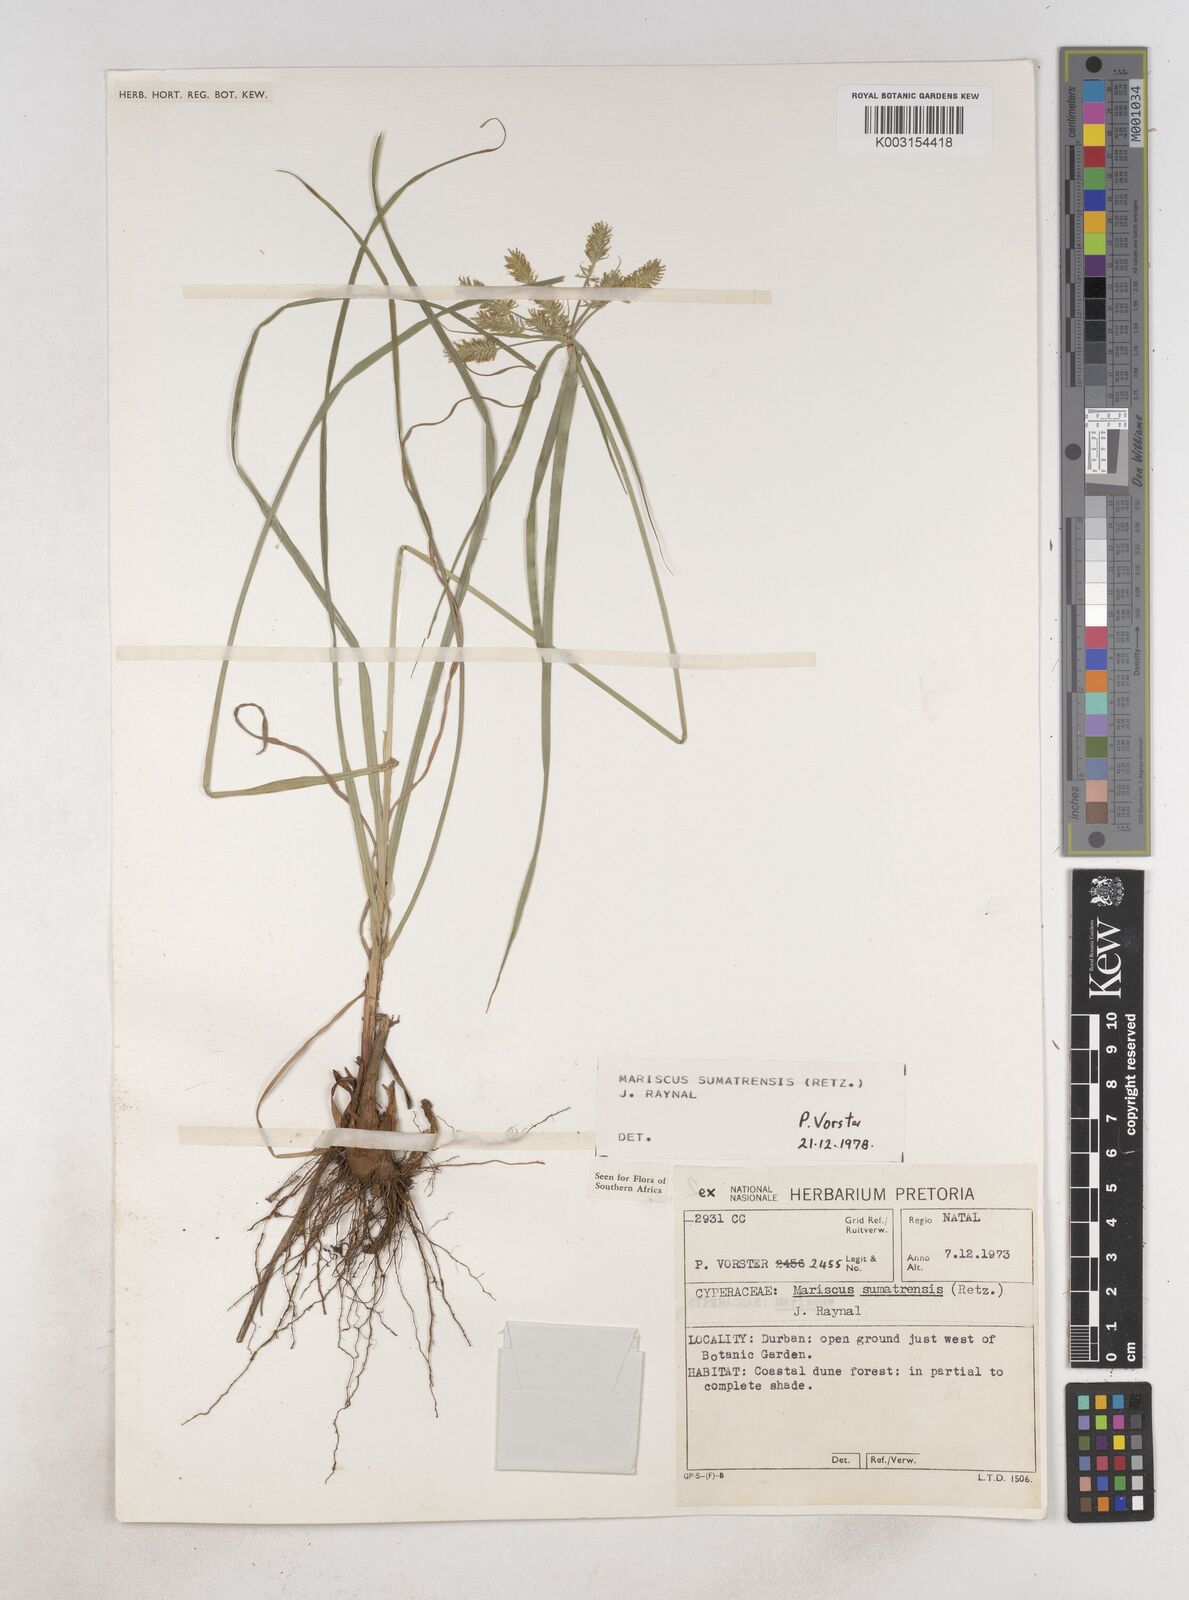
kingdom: Plantae
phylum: Tracheophyta
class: Liliopsida
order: Poales
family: Cyperaceae
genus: Cyperus
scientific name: Cyperus cyperoides
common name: Pacific island flat sedge
